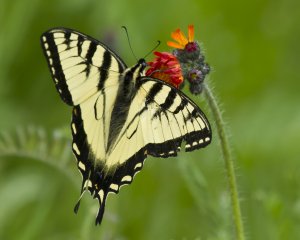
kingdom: Animalia
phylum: Arthropoda
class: Insecta
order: Lepidoptera
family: Papilionidae
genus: Pterourus
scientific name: Pterourus canadensis
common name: Canadian Tiger Swallowtail
